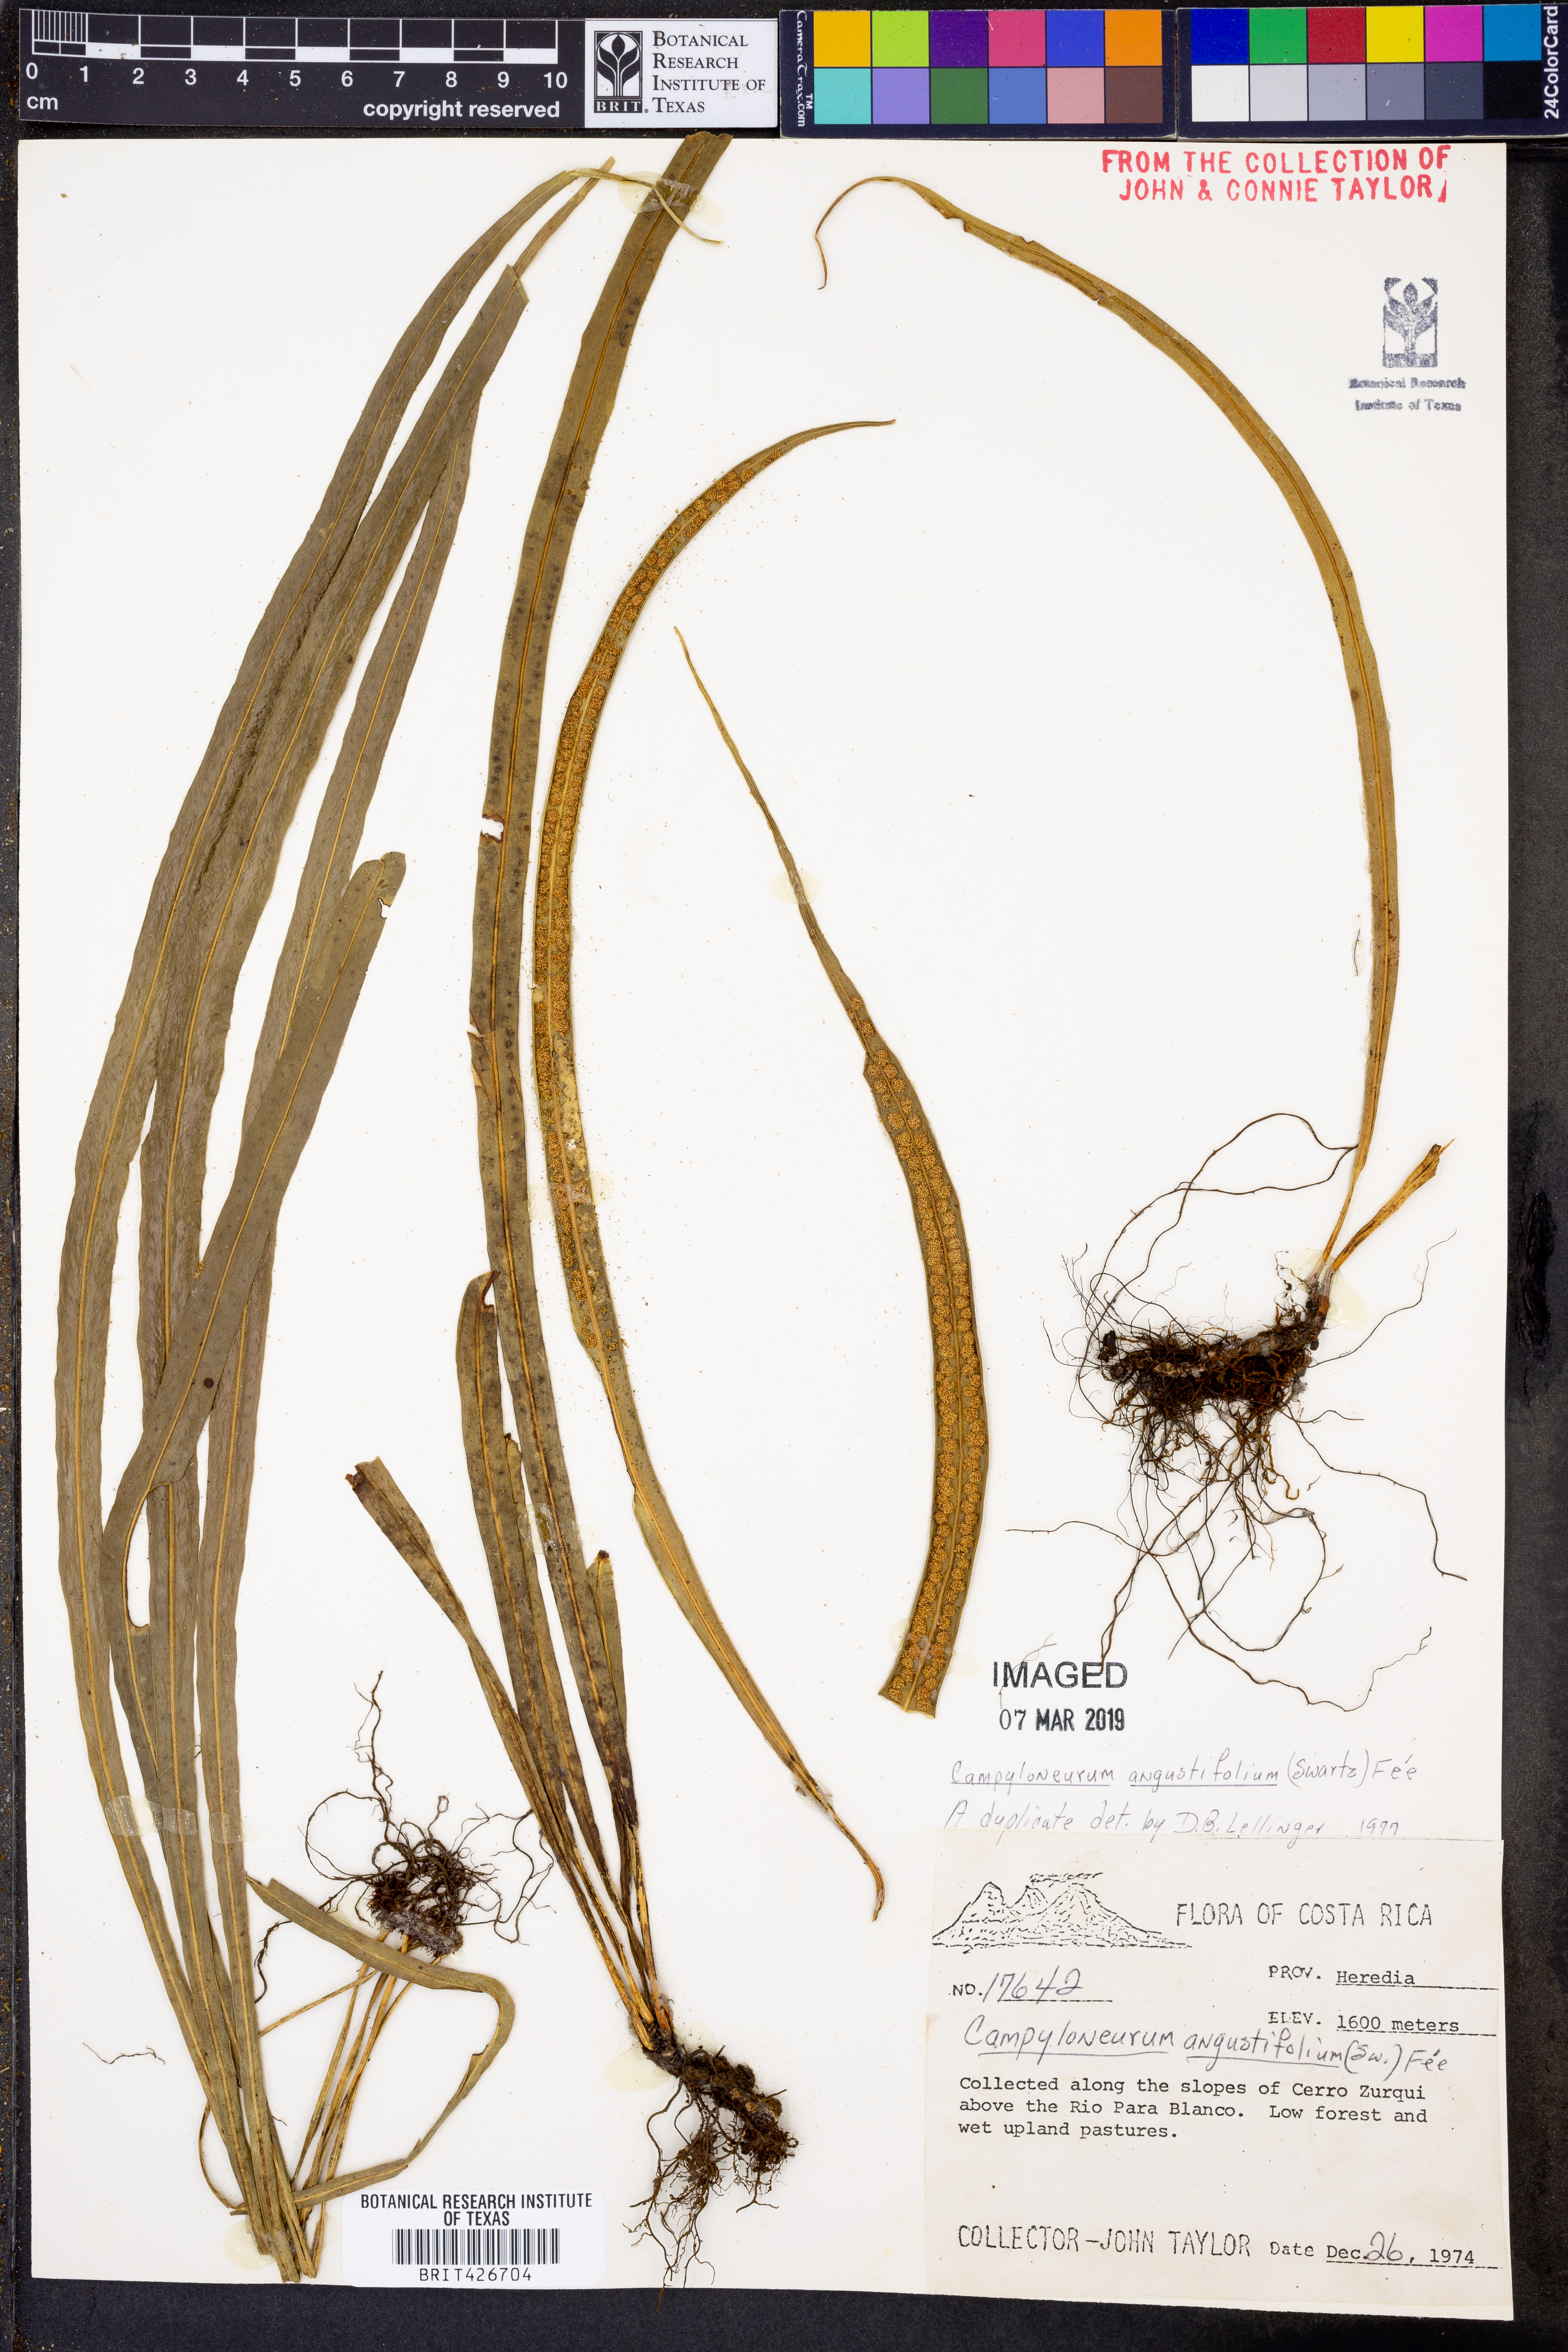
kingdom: Plantae
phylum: Tracheophyta
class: Polypodiopsida
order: Polypodiales
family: Polypodiaceae
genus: Campyloneurum
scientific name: Campyloneurum angustifolium
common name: Narrow-leaf strap fern
